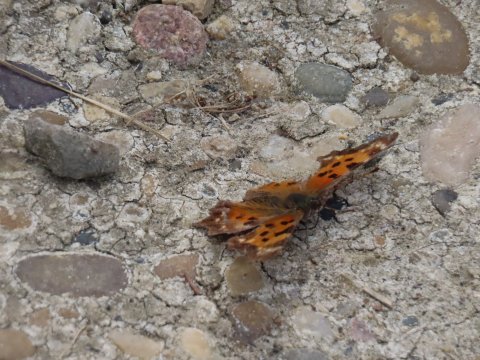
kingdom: Animalia
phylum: Arthropoda
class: Insecta
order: Lepidoptera
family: Nymphalidae
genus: Polygonia
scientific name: Polygonia faunus
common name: Green Comma
